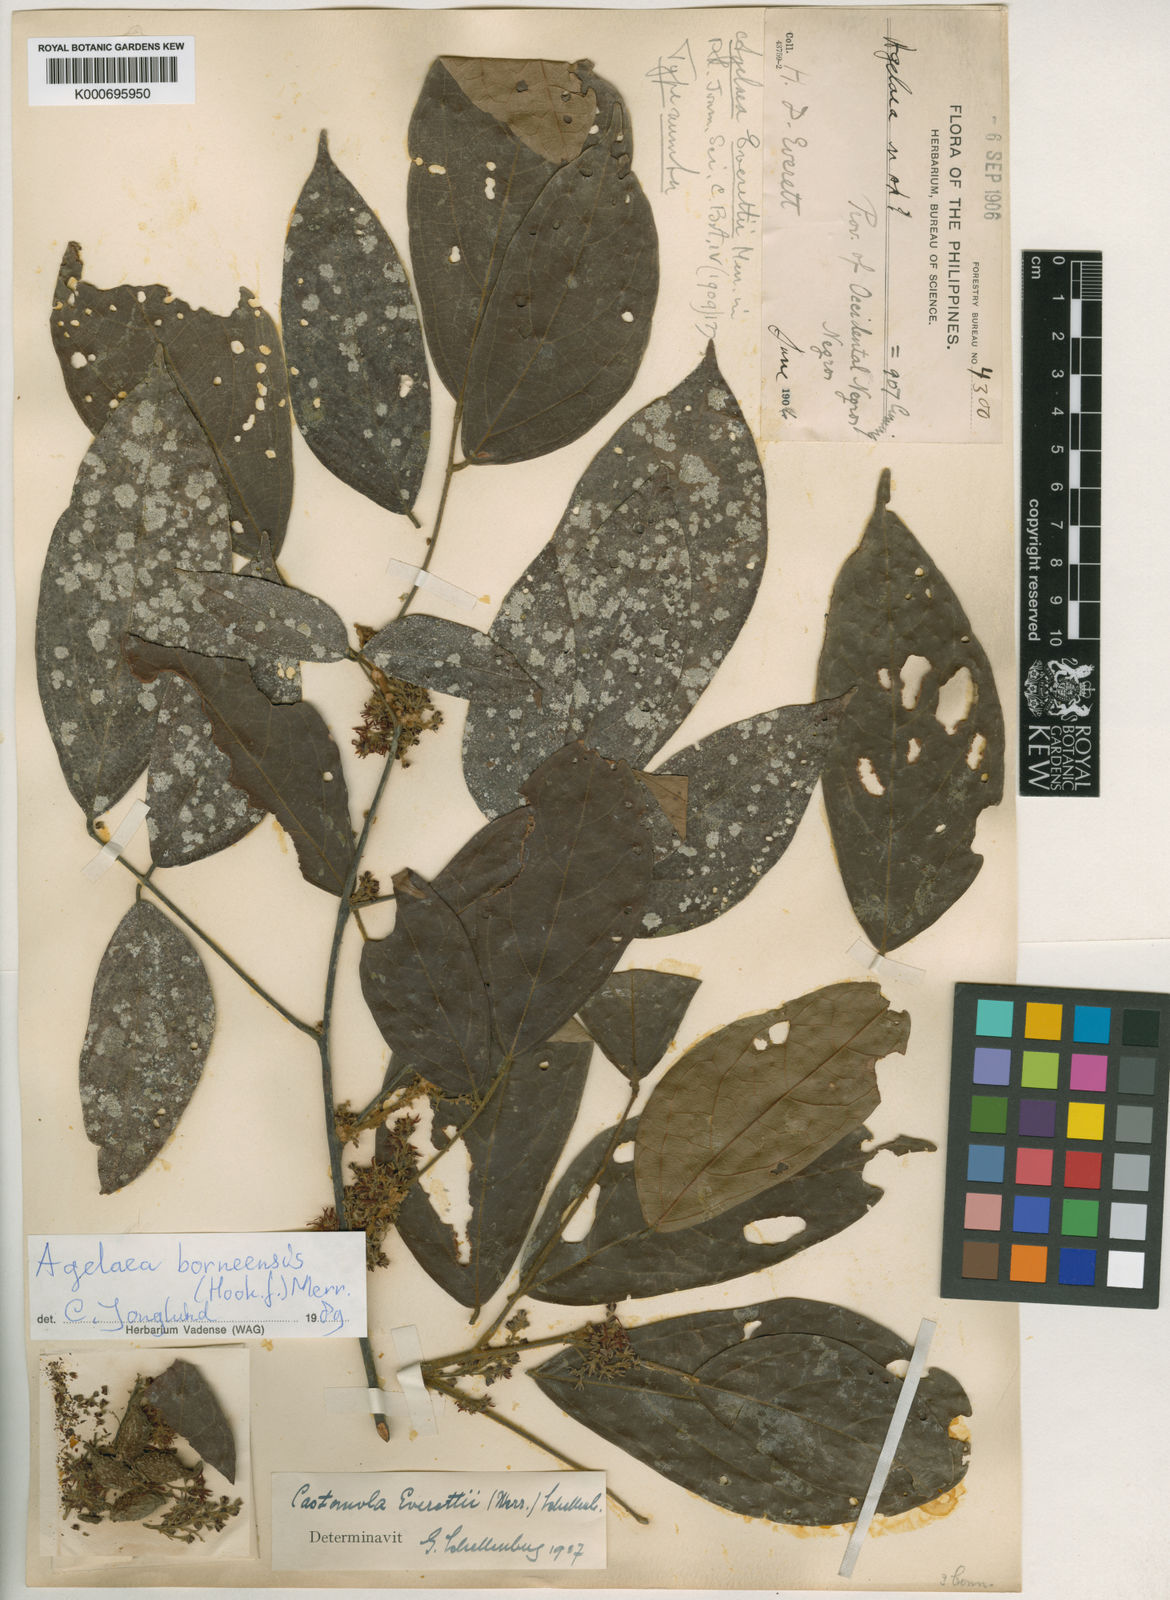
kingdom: Plantae
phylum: Tracheophyta
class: Magnoliopsida
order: Oxalidales
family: Connaraceae
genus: Agelaea
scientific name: Agelaea borneensis
